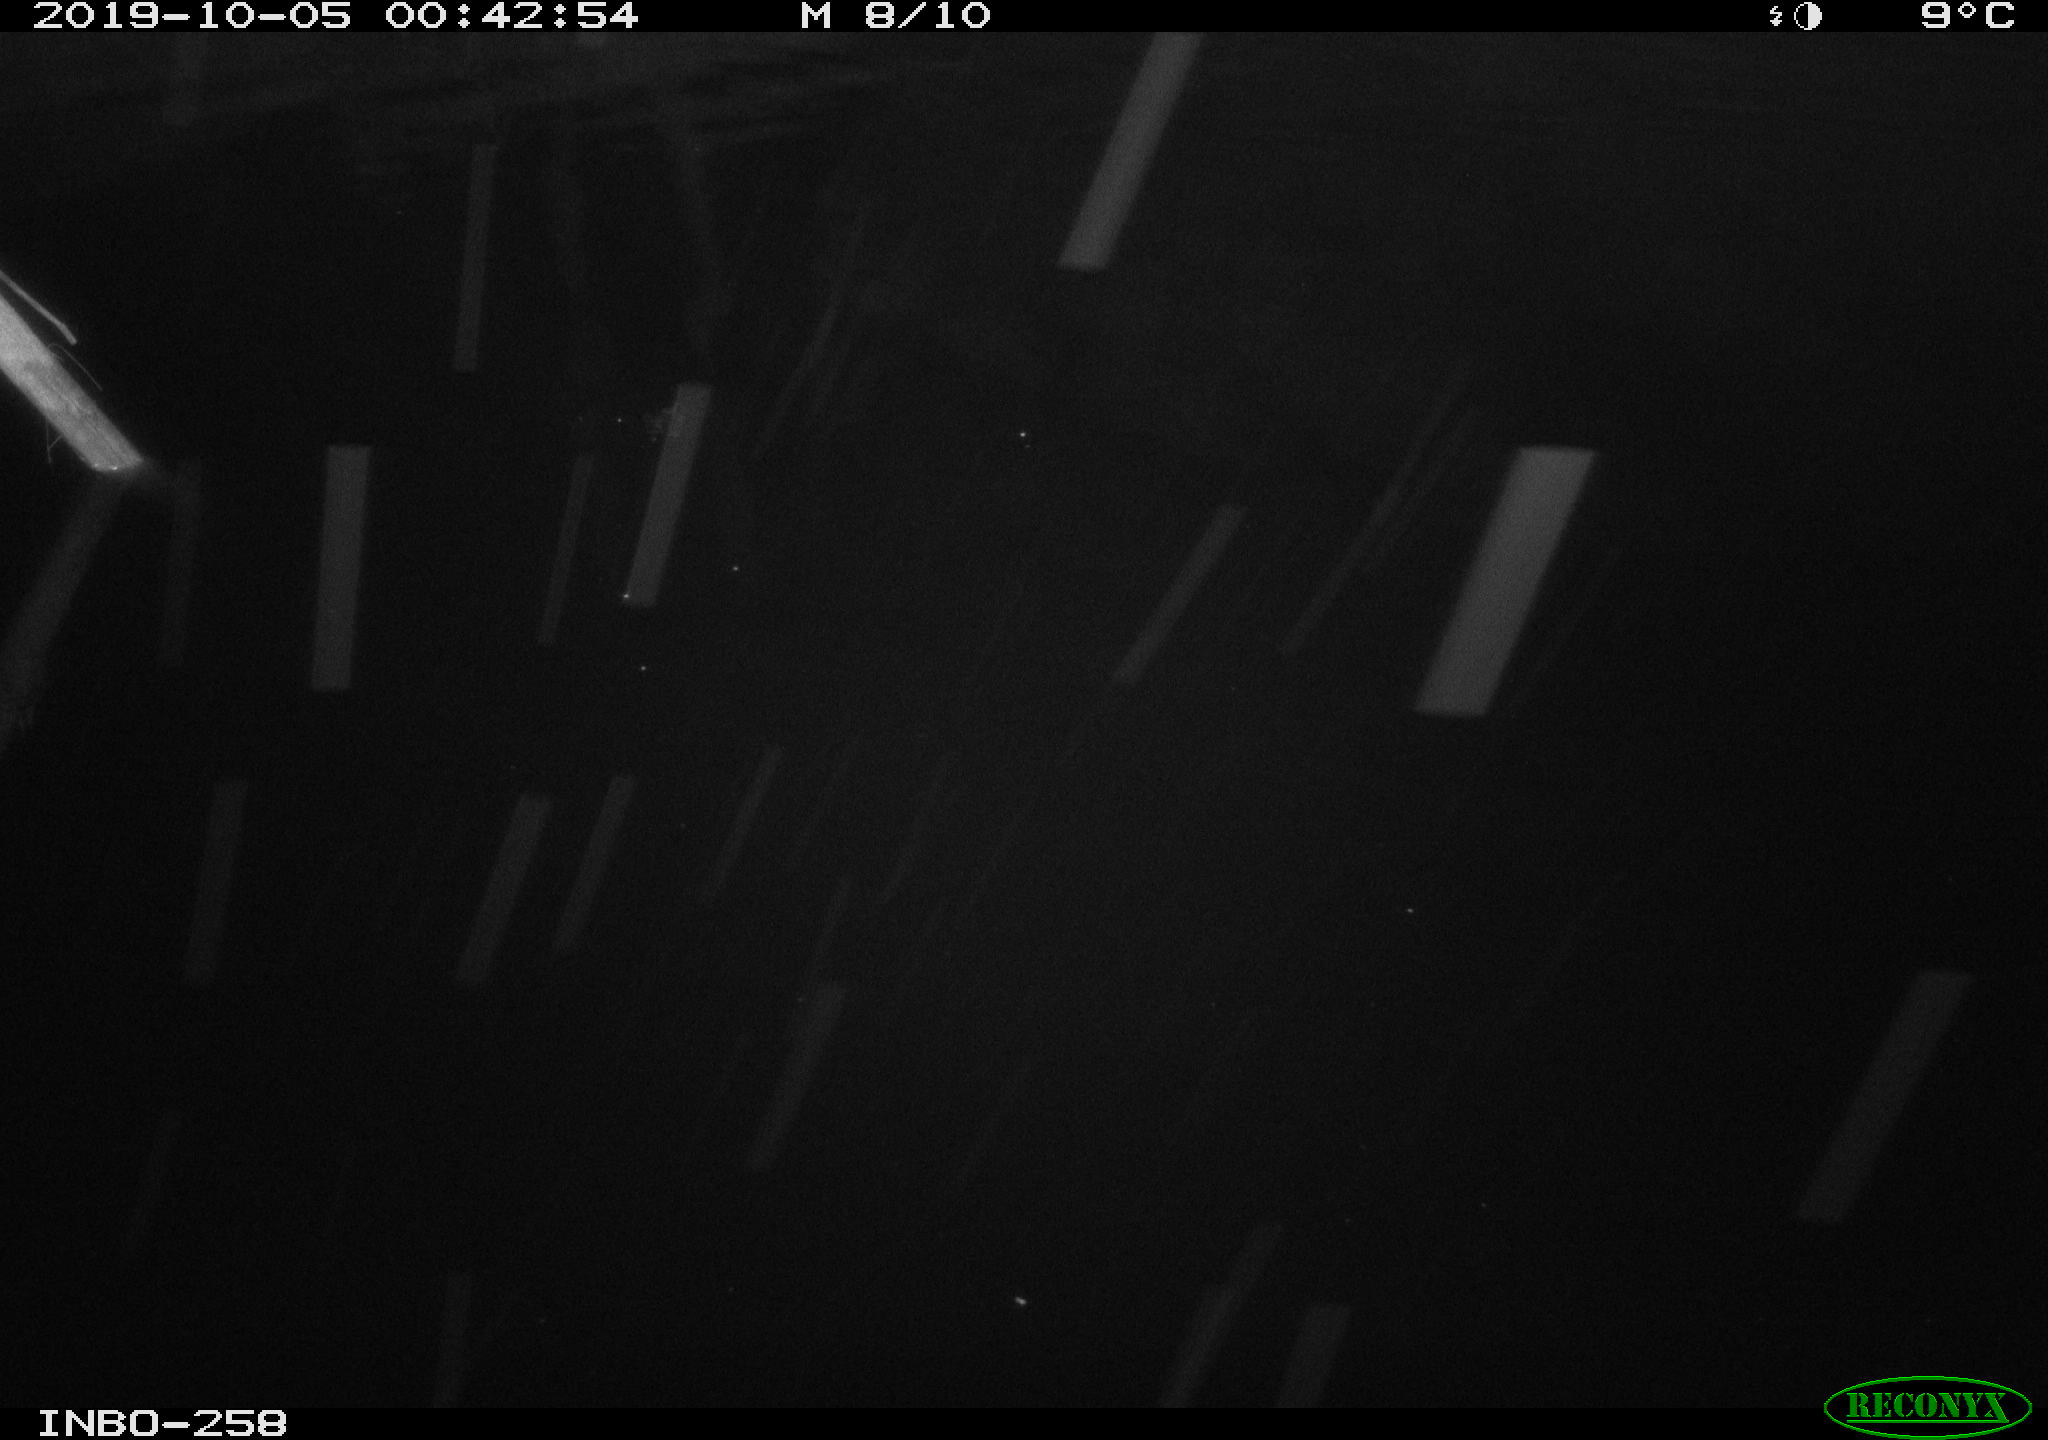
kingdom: Animalia
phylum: Chordata
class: Aves
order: Anseriformes
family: Anatidae
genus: Anas
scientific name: Anas platyrhynchos
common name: Mallard
